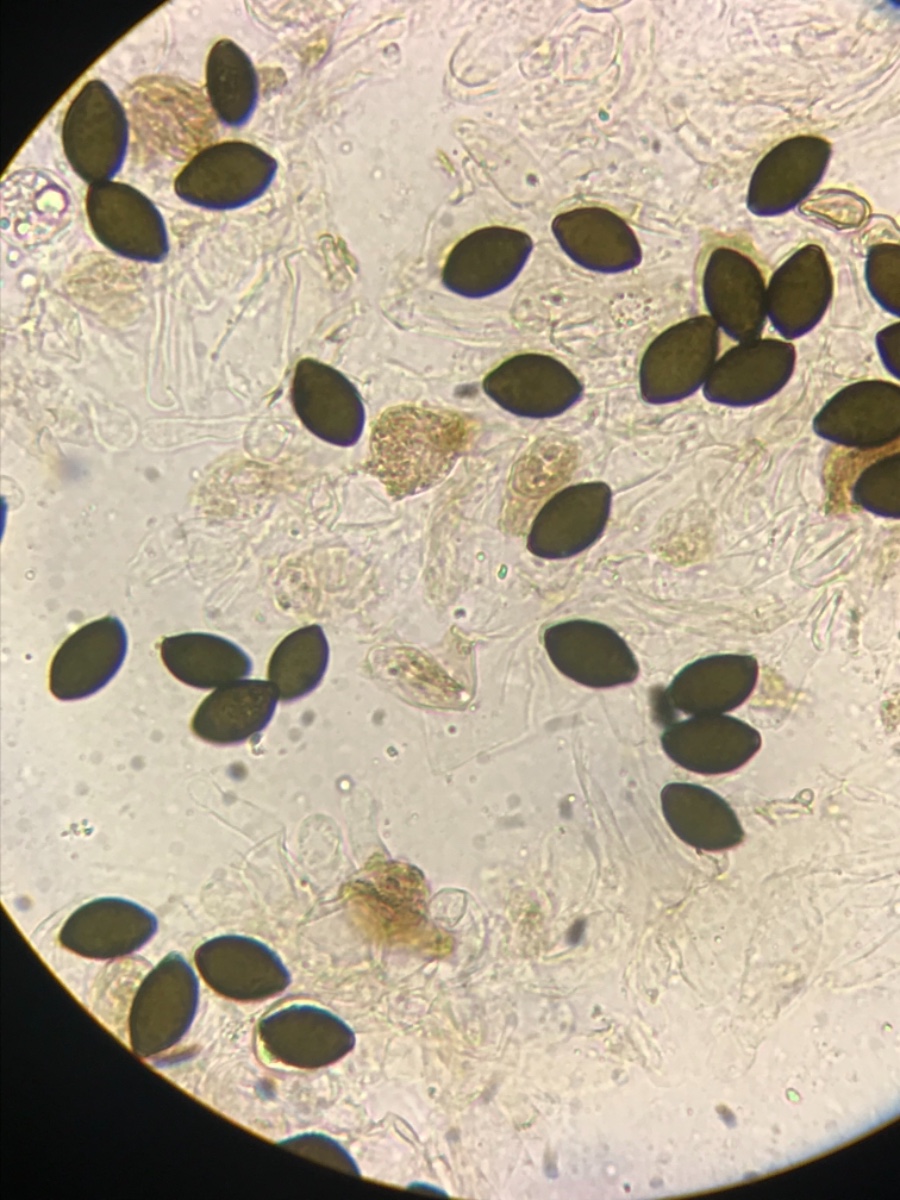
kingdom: Fungi
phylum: Basidiomycota
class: Agaricomycetes
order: Agaricales
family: Bolbitiaceae
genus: Panaeolus
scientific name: Panaeolus
